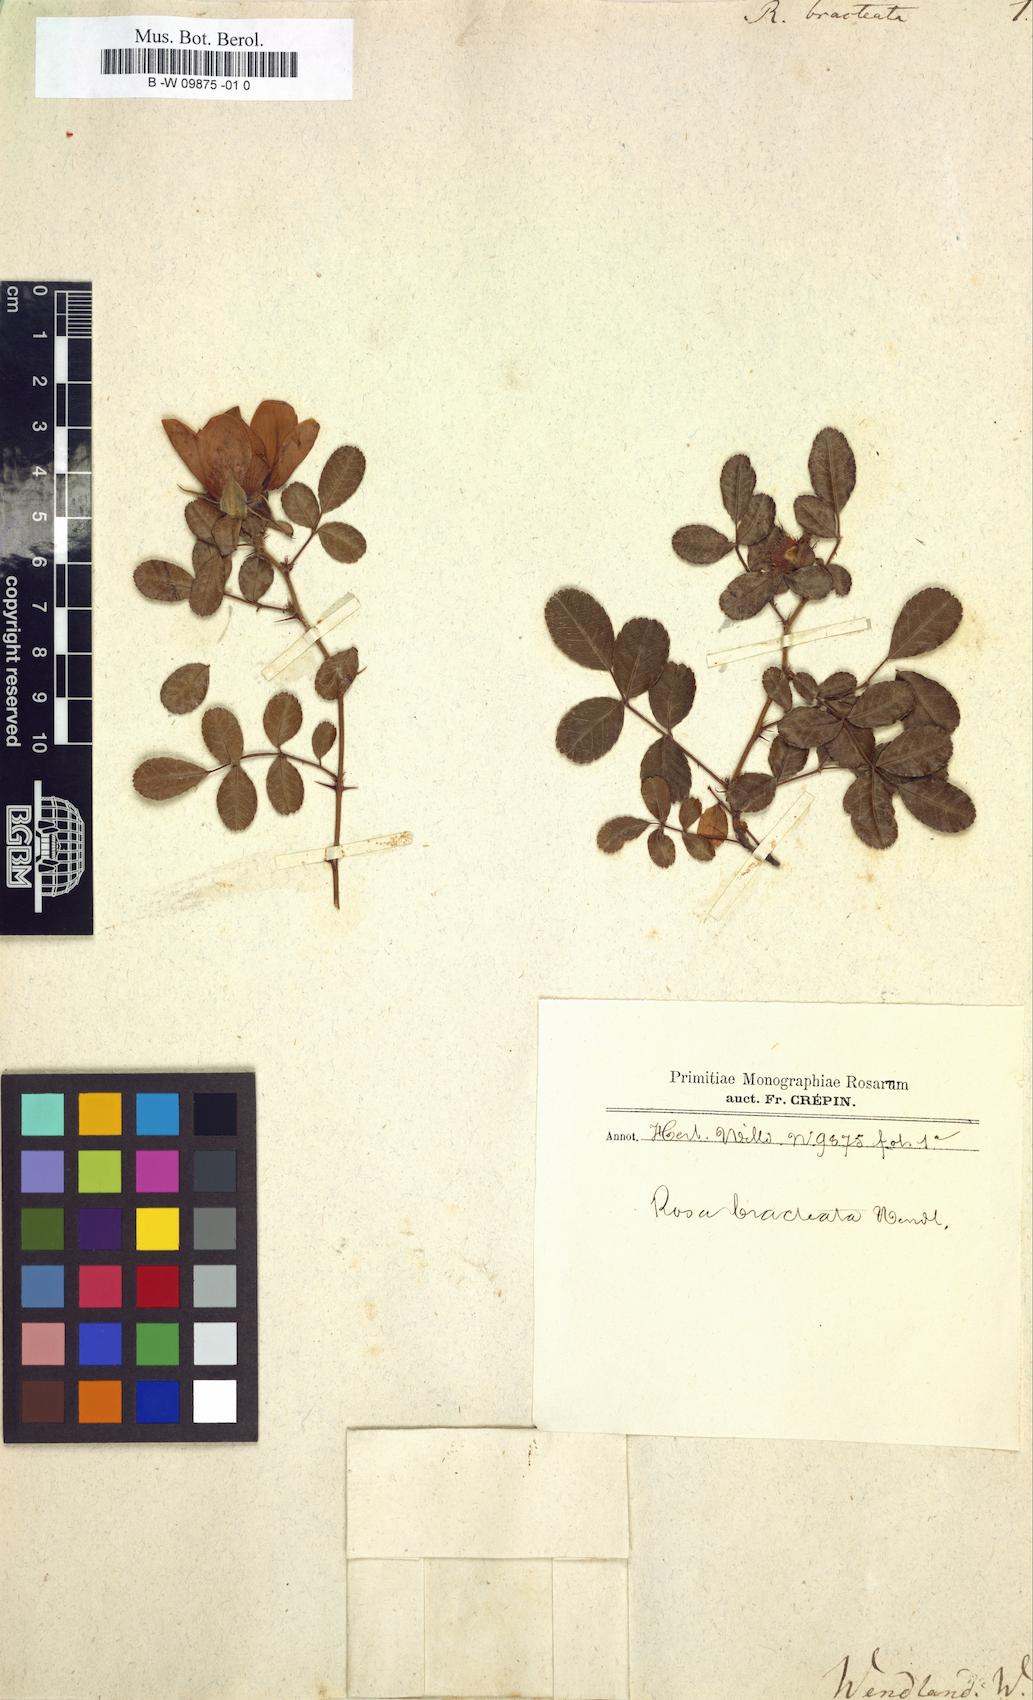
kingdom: Plantae
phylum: Tracheophyta
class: Magnoliopsida
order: Rosales
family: Rosaceae
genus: Rosa
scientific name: Rosa bracteata
